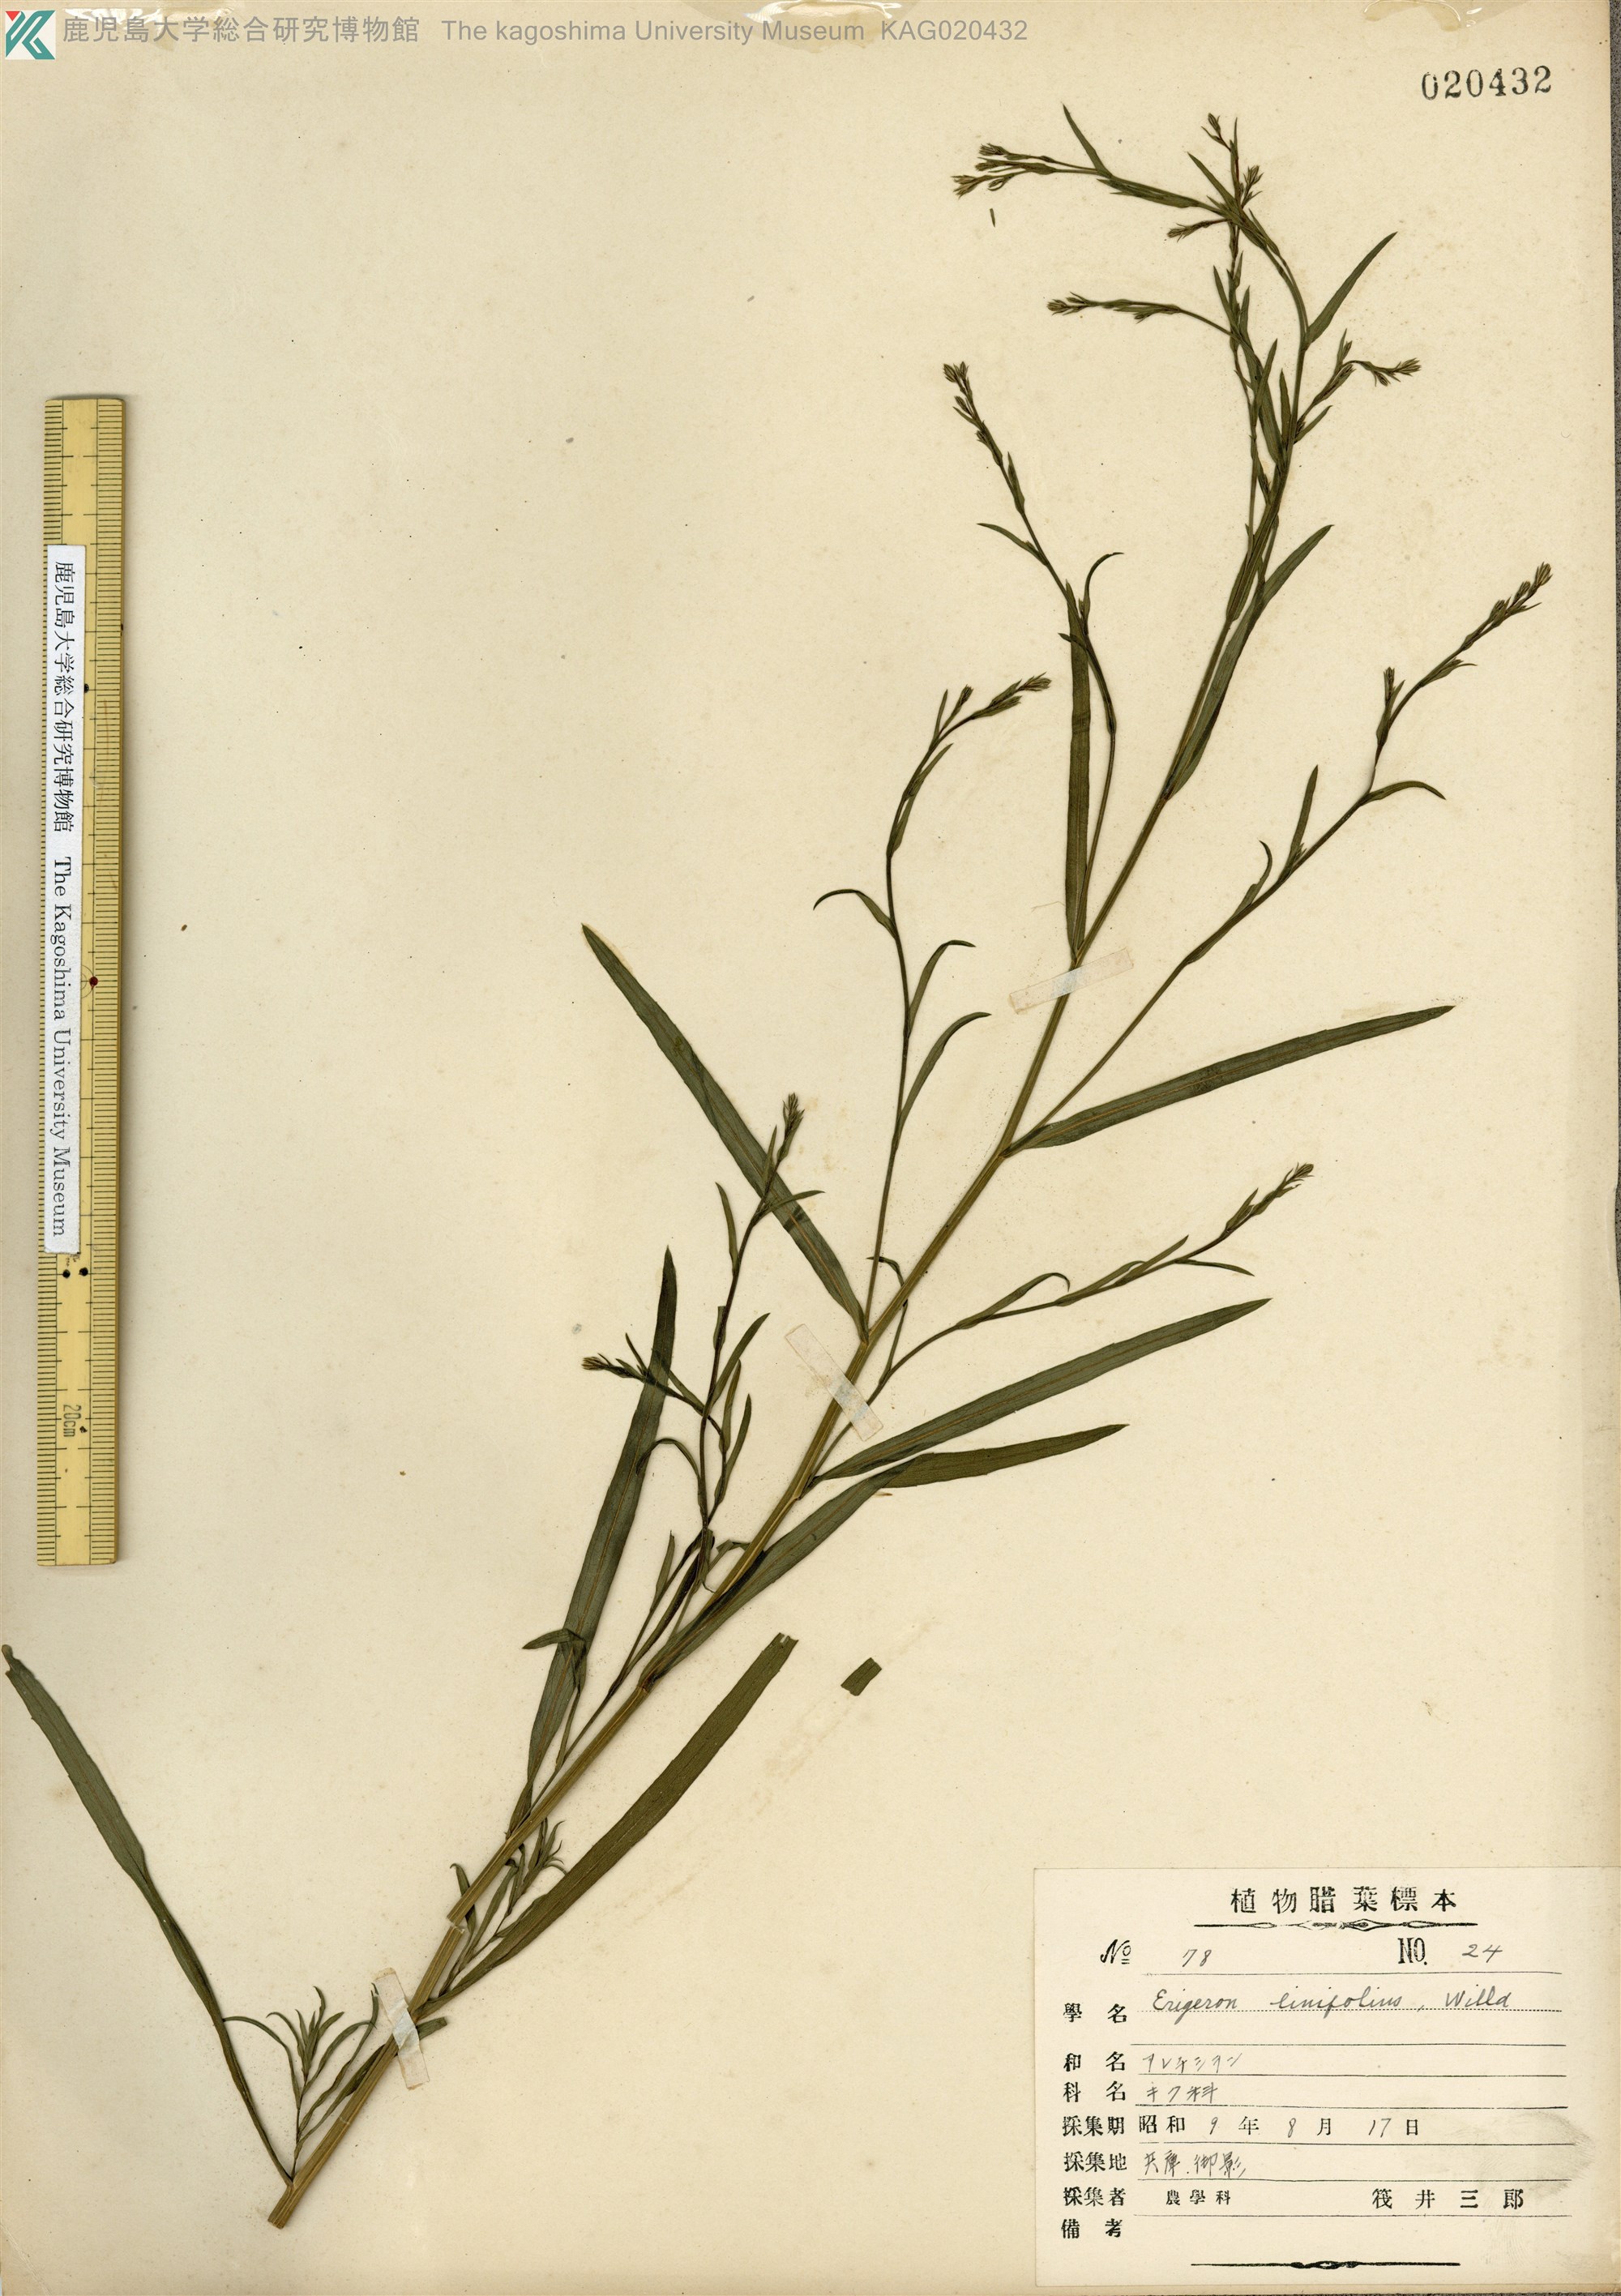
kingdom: Plantae
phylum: Tracheophyta
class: Magnoliopsida
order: Asterales
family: Asteraceae
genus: Symphyotrichum
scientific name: Symphyotrichum subulatum
